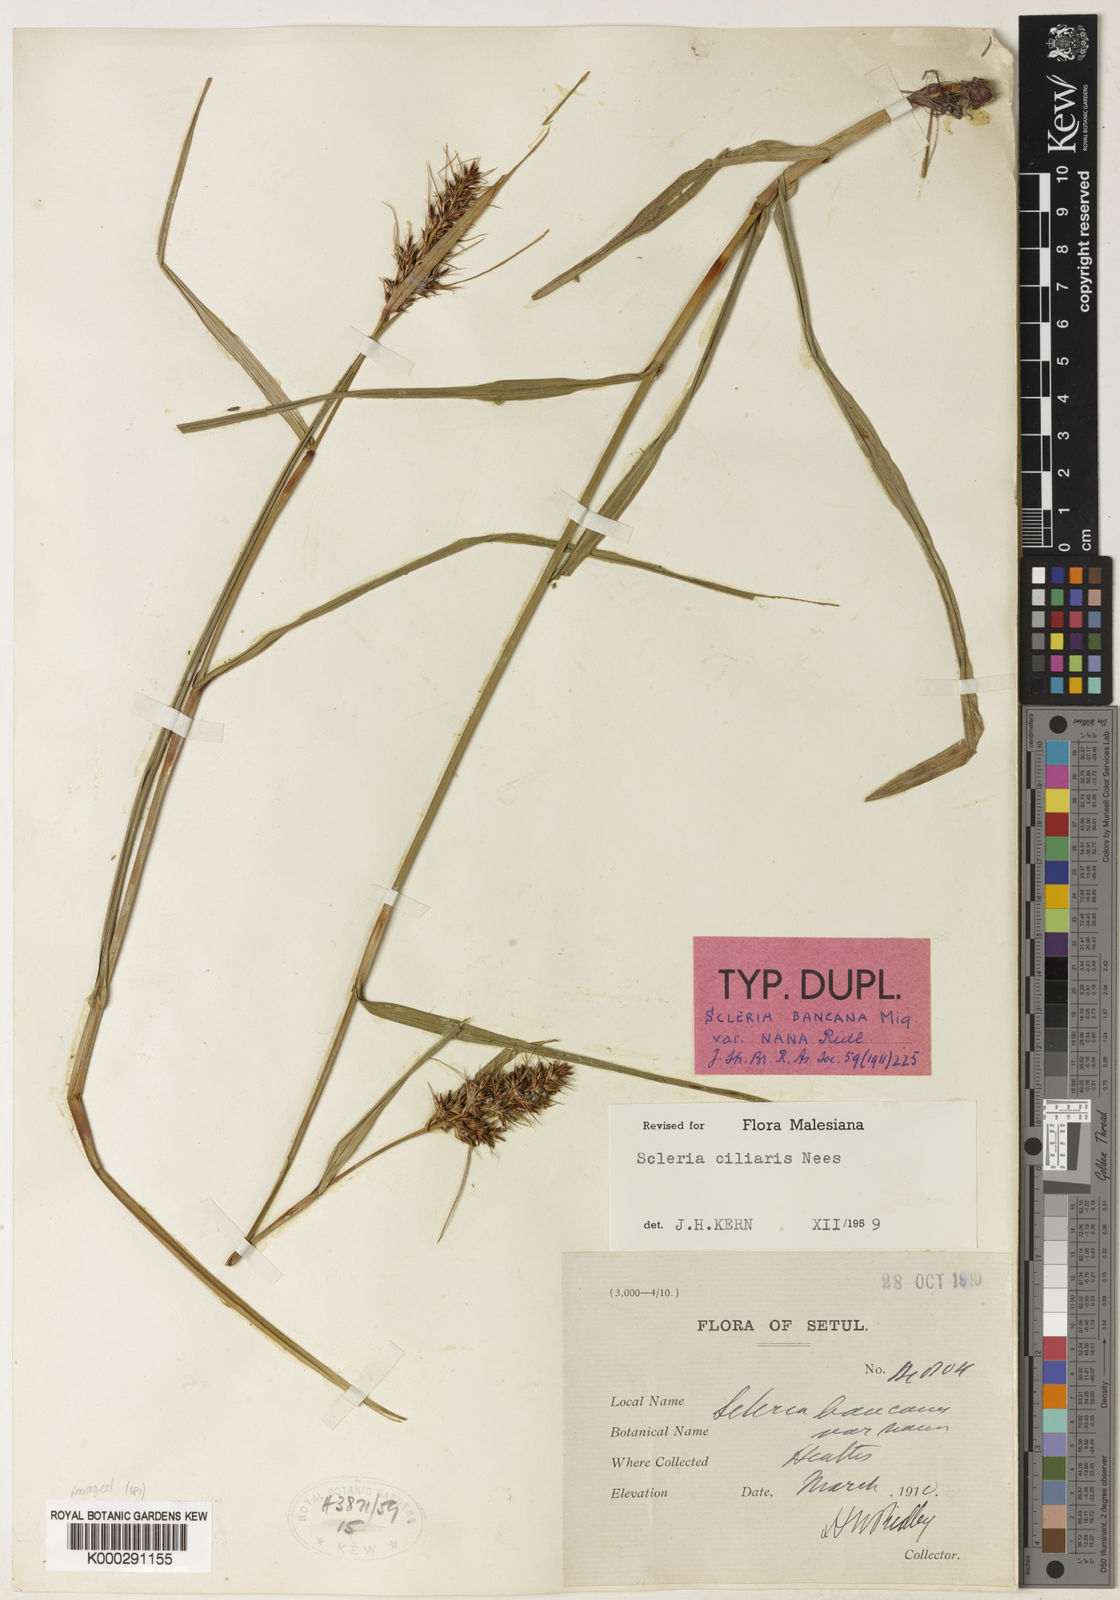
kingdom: Plantae
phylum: Tracheophyta
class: Liliopsida
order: Poales
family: Cyperaceae
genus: Scleria
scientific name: Scleria ciliaris
